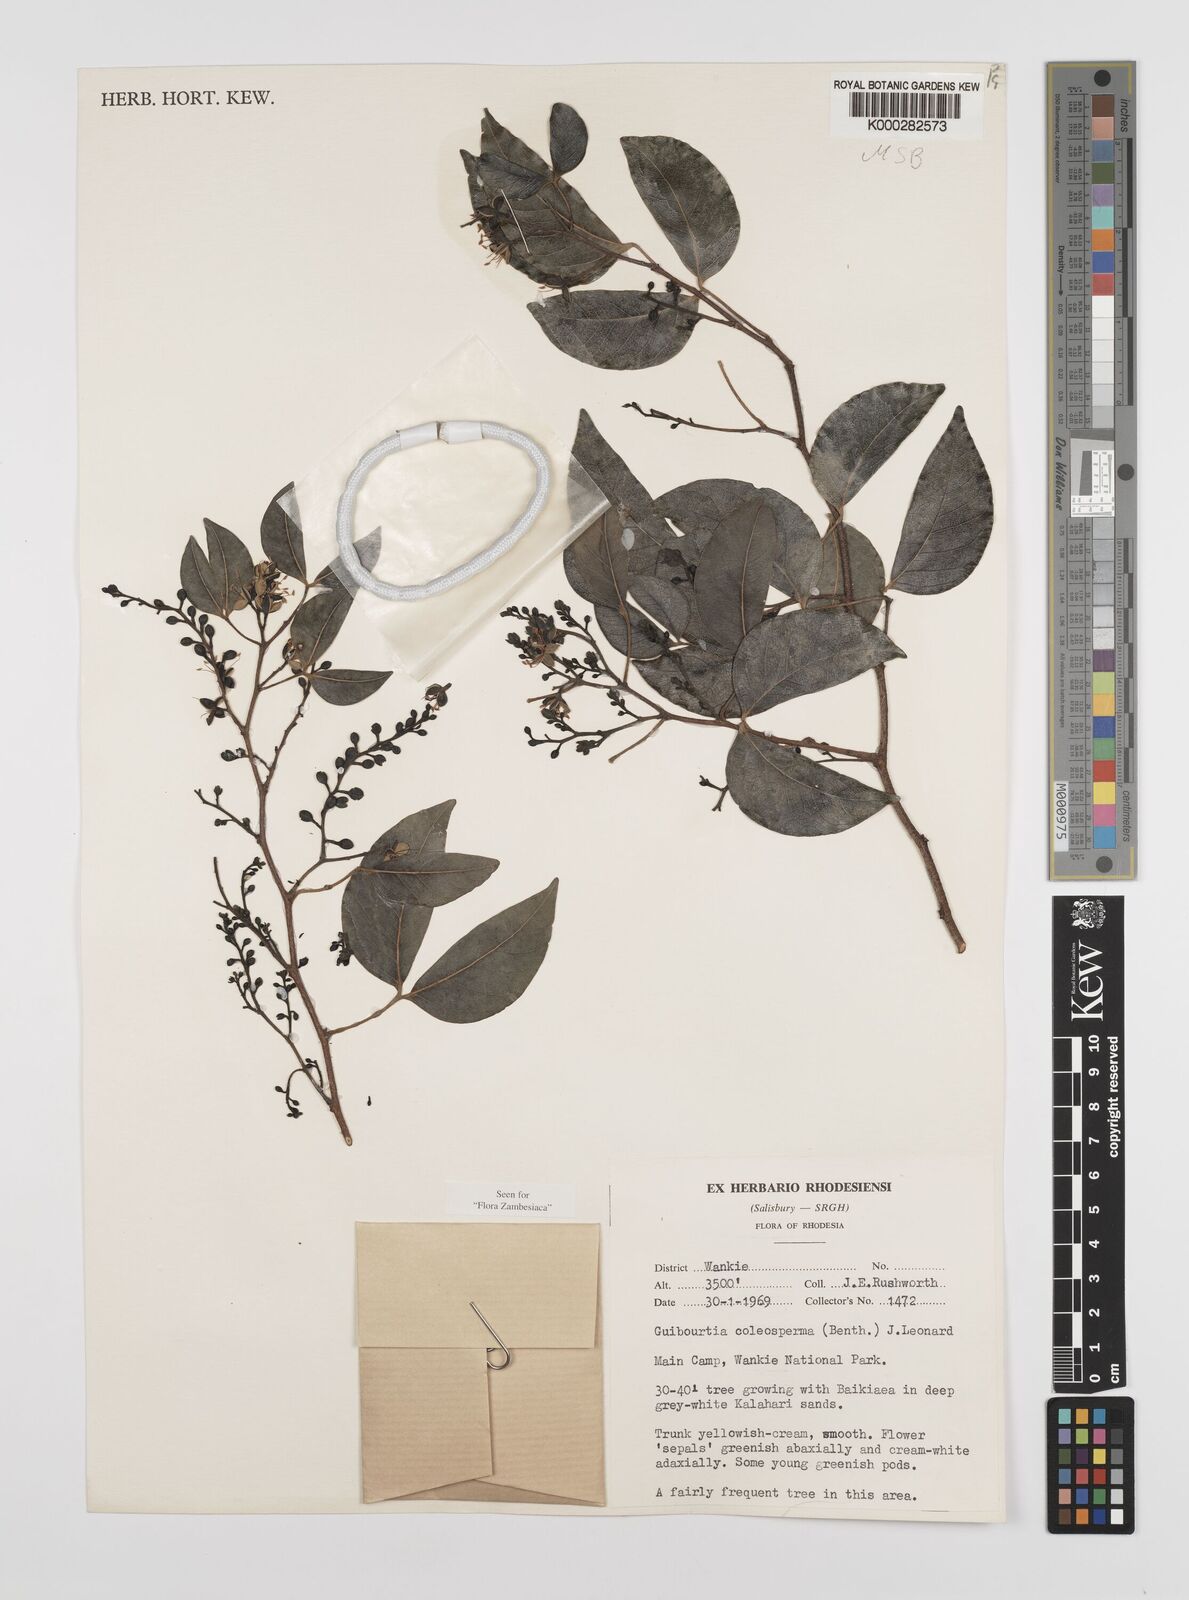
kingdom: Plantae
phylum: Tracheophyta
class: Magnoliopsida
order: Fabales
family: Fabaceae
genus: Guibourtia
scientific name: Guibourtia coleosperma
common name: African rosewoood
